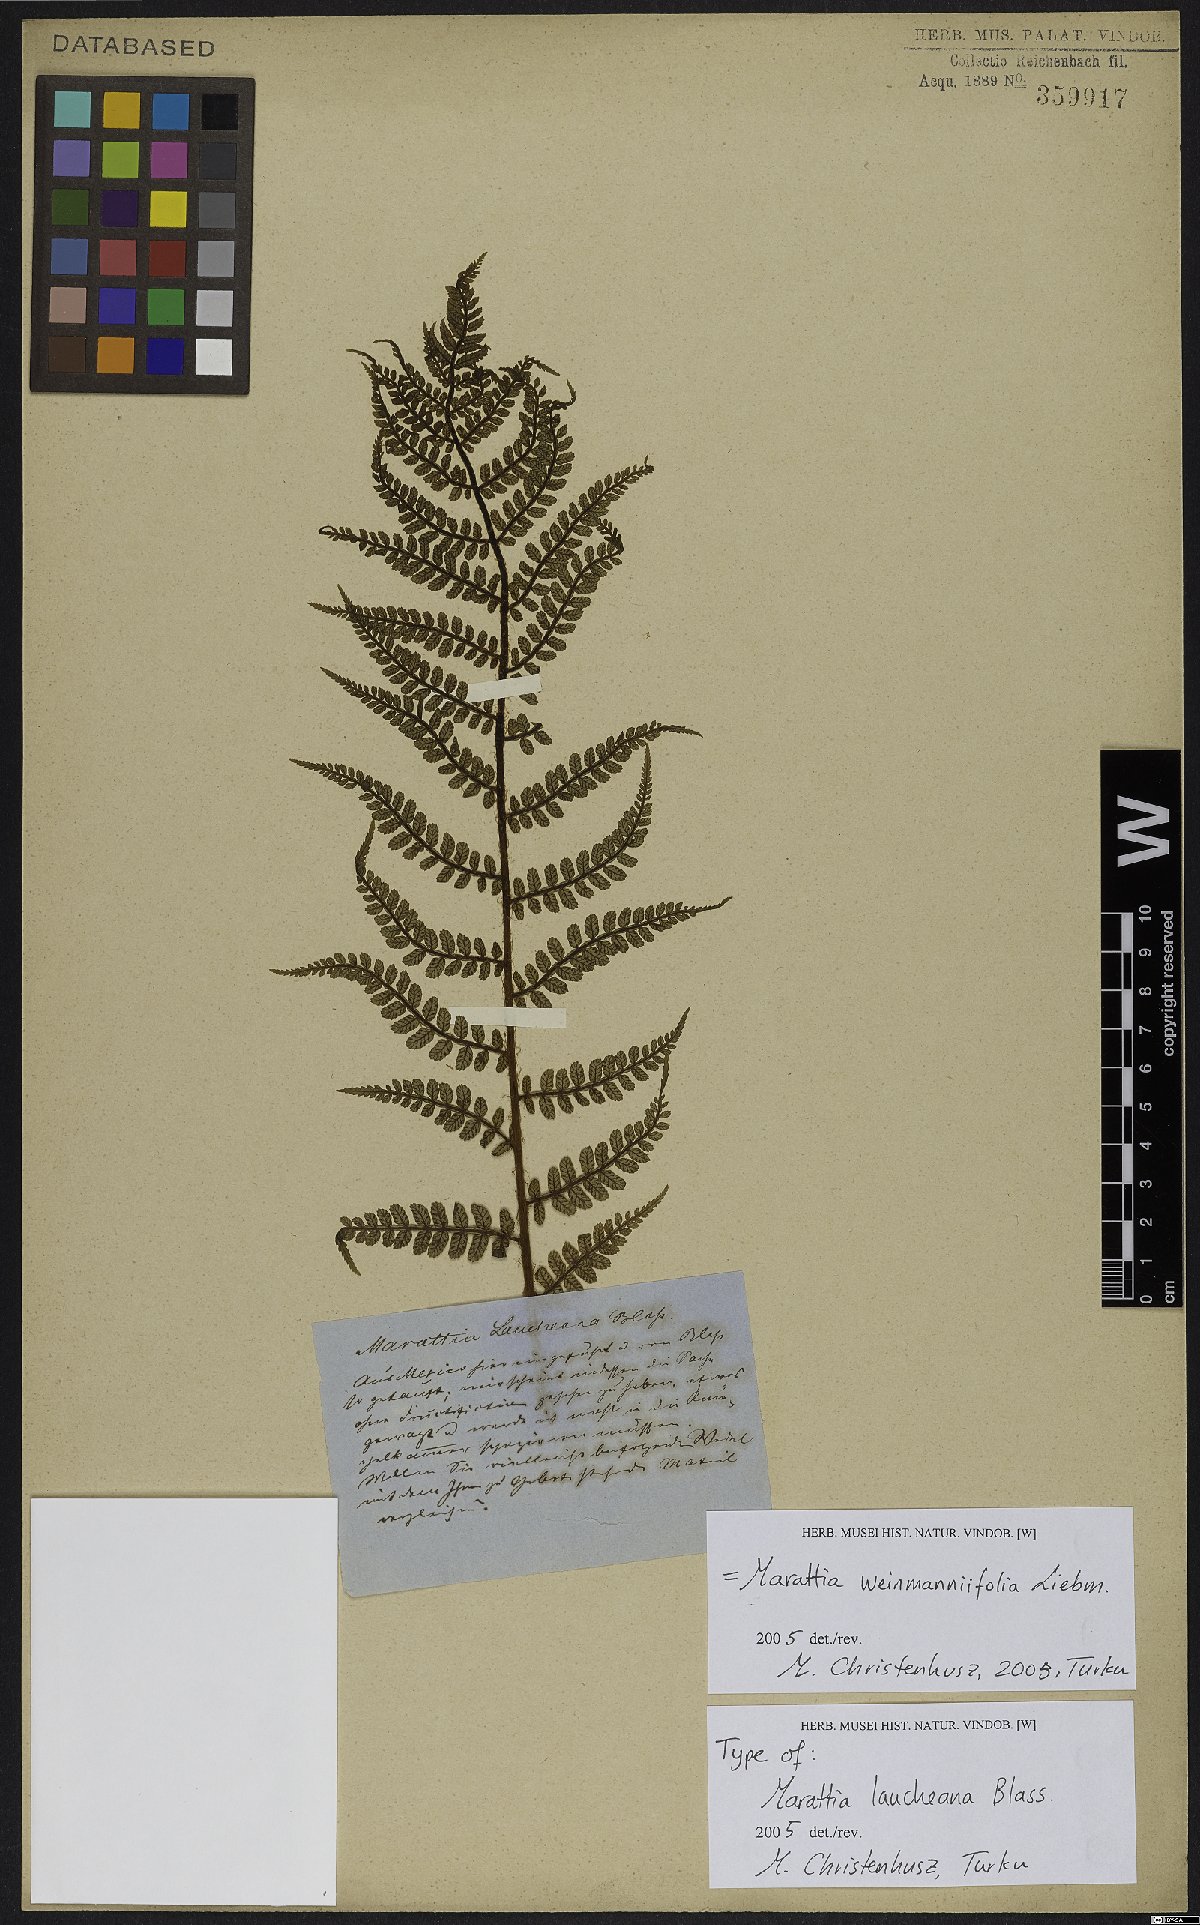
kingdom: Plantae
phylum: Tracheophyta
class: Polypodiopsida
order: Marattiales
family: Marattiaceae
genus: Marattia
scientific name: Marattia weinmanniifolia
